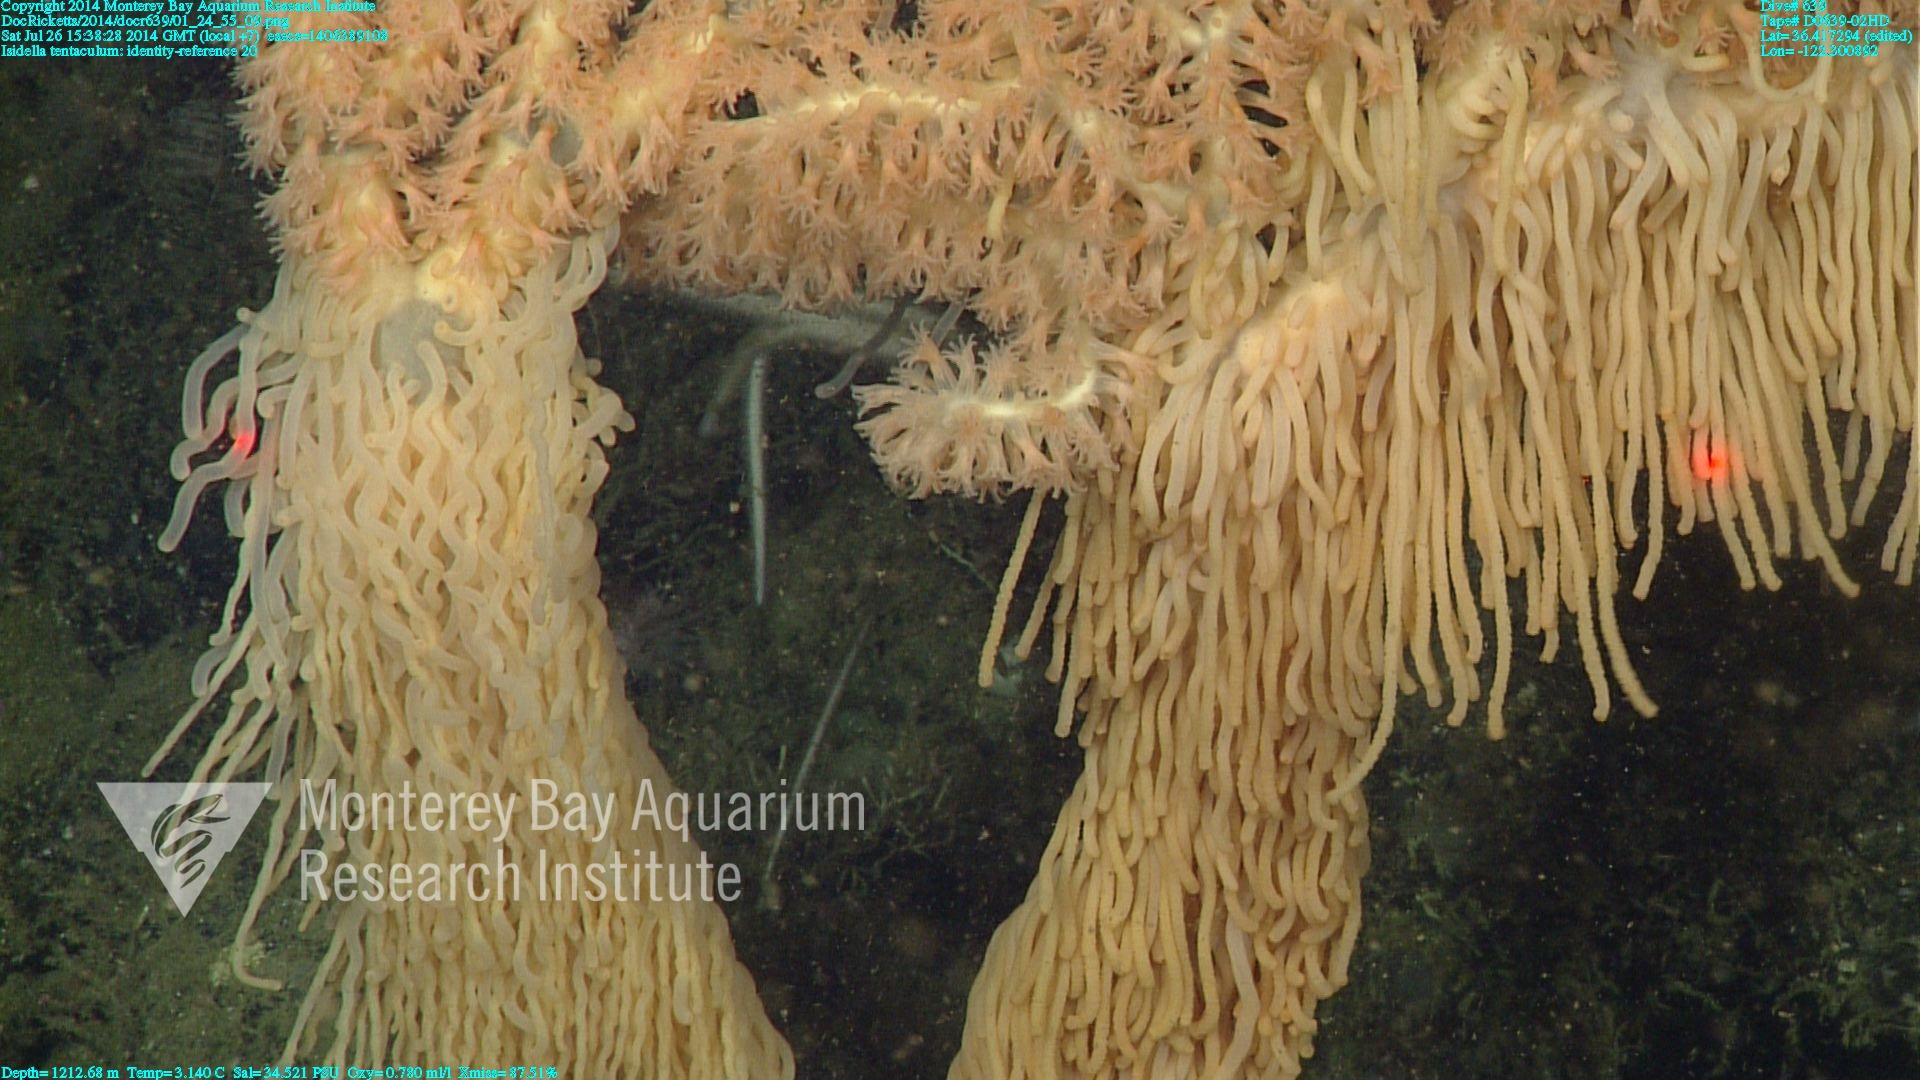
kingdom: Animalia
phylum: Cnidaria
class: Anthozoa
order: Scleralcyonacea
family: Keratoisididae
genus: Isidella
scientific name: Isidella tentaculum
